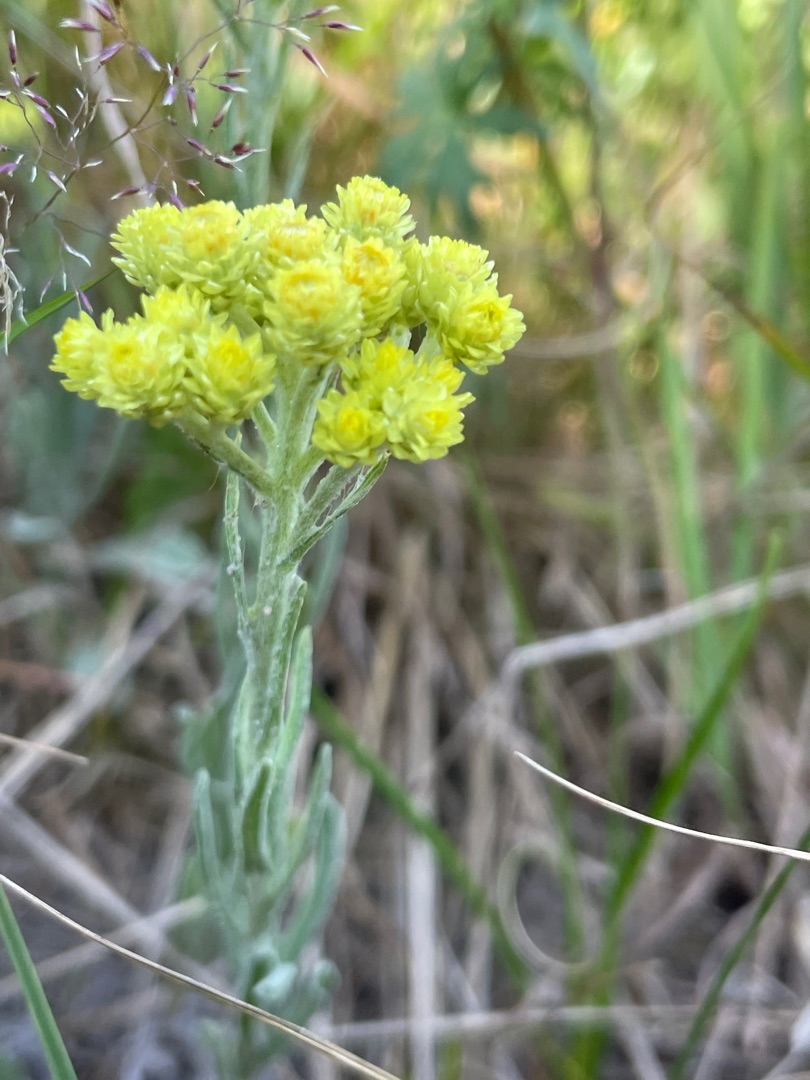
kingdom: Plantae
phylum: Tracheophyta
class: Magnoliopsida
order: Asterales
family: Asteraceae
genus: Helichrysum
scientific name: Helichrysum arenarium
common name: Gul evighedsblomst
